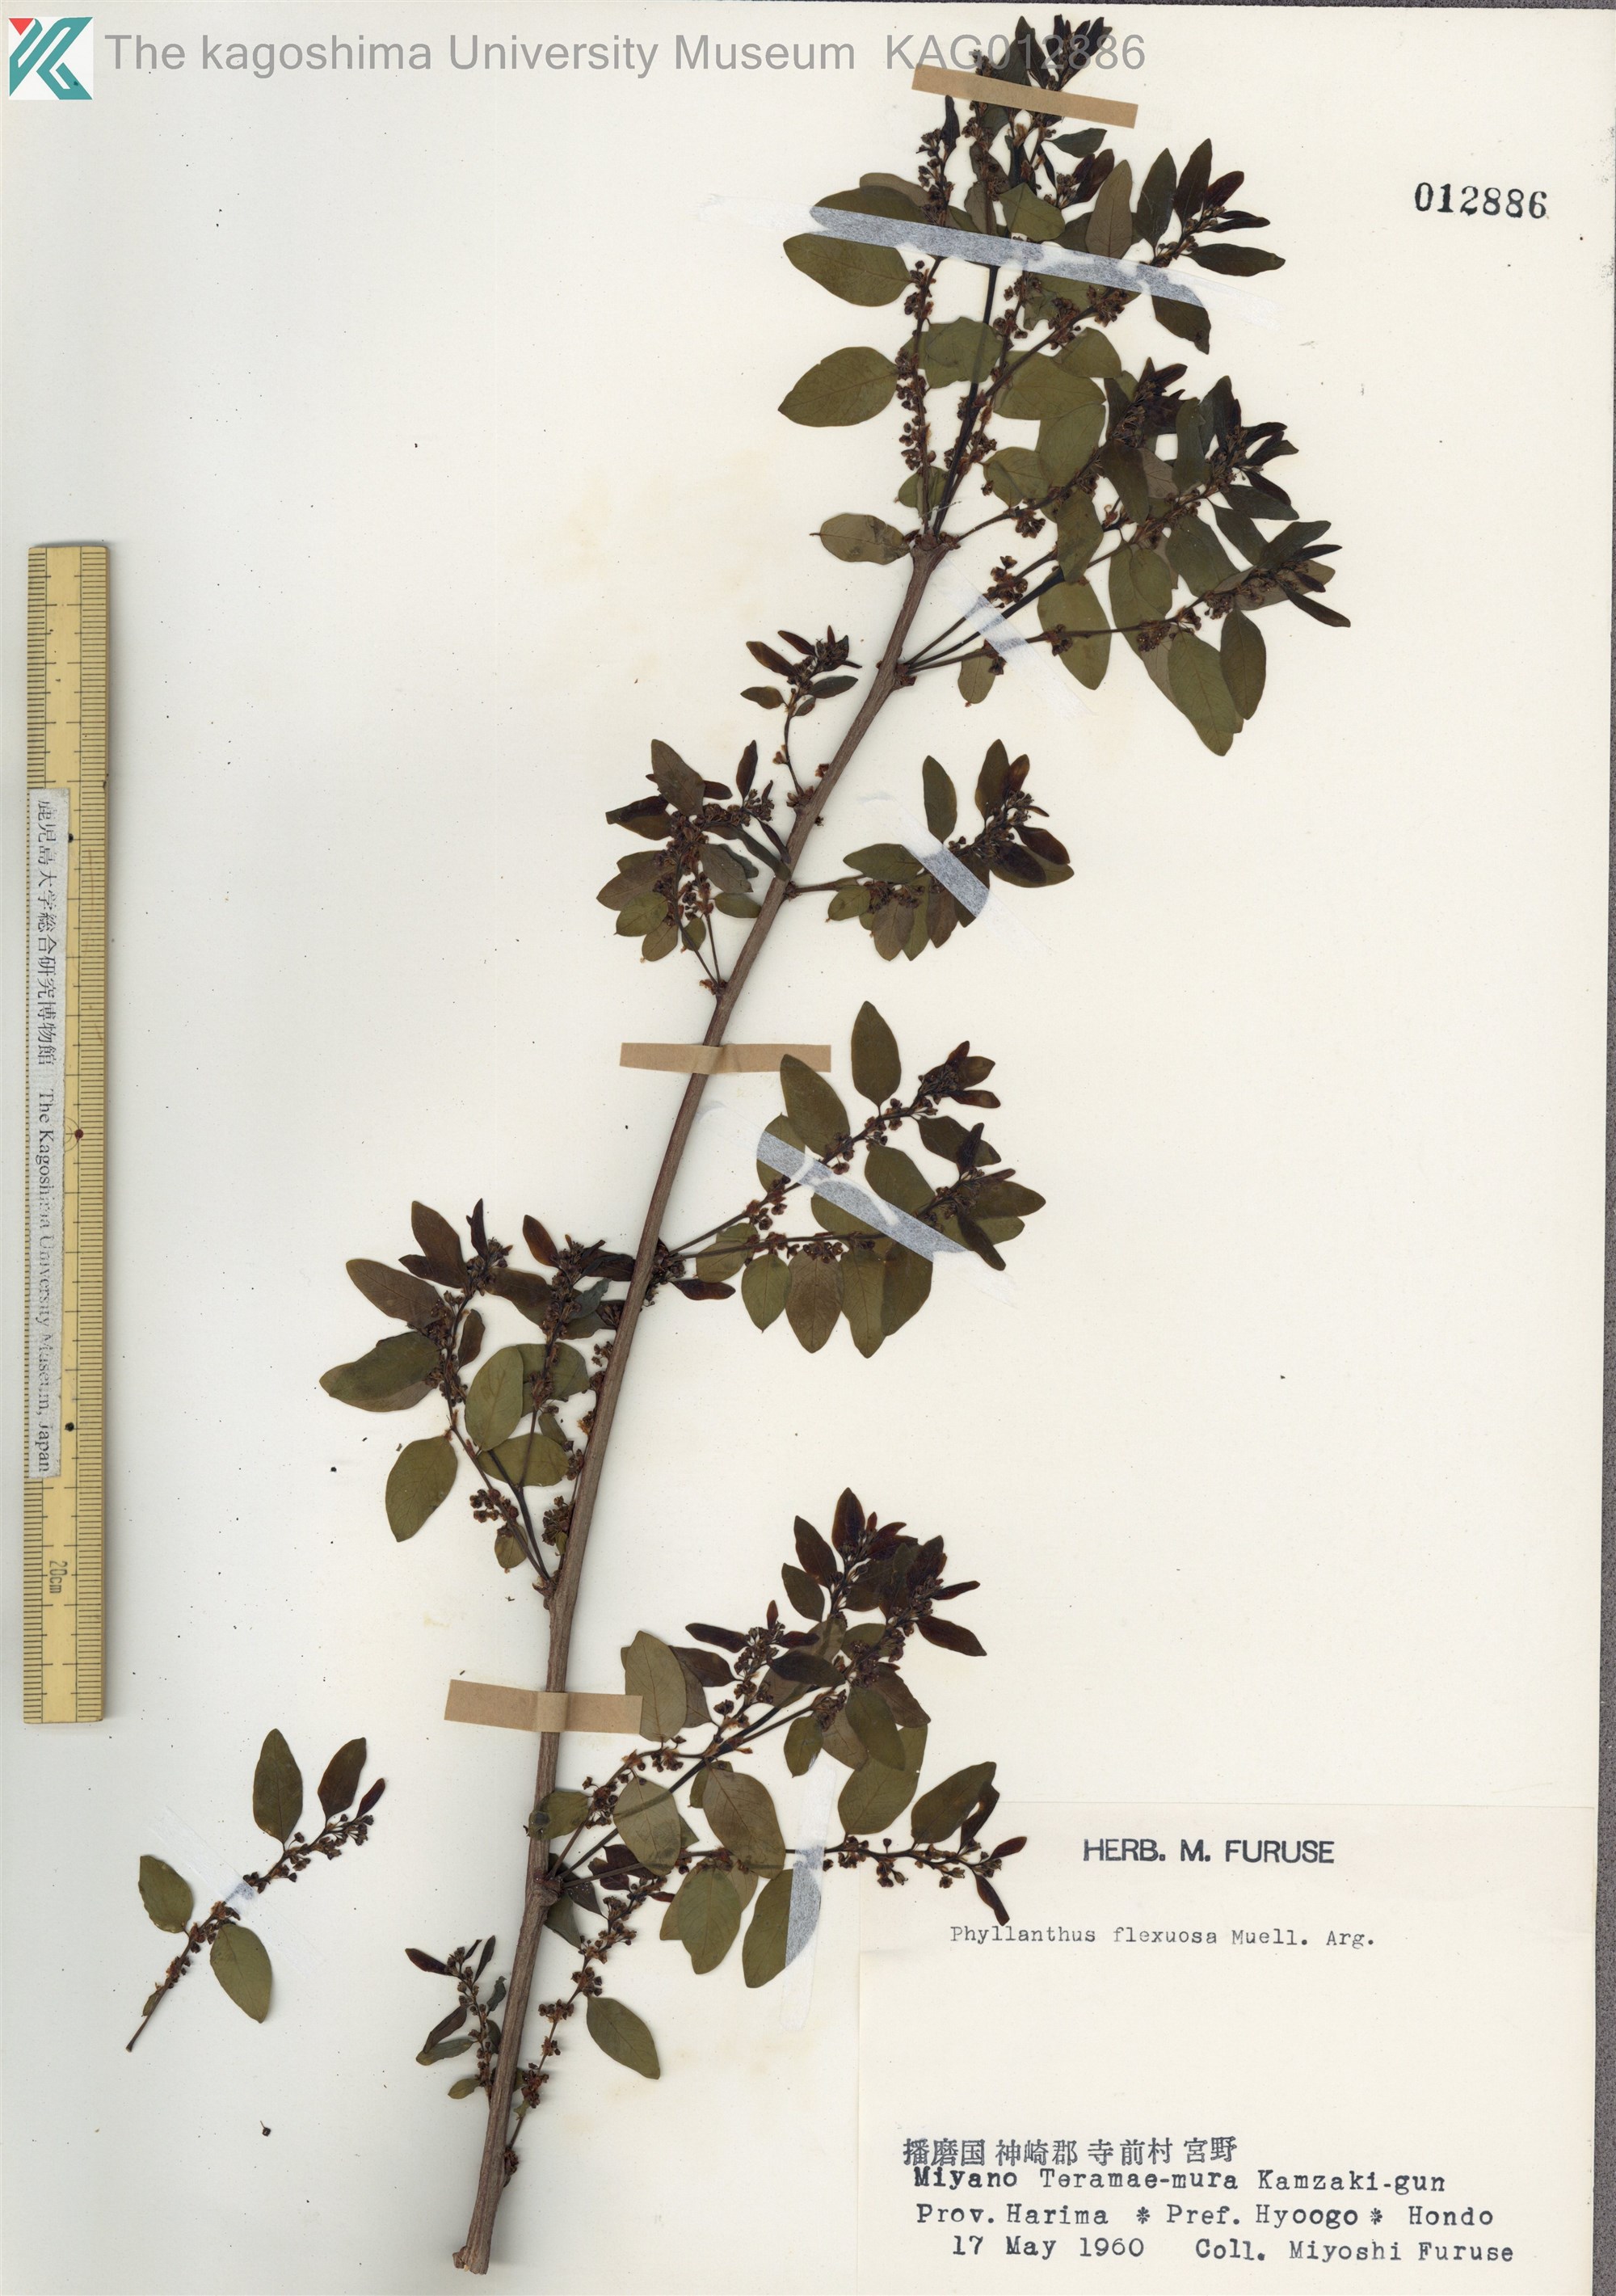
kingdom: Plantae
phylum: Tracheophyta
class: Magnoliopsida
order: Malpighiales
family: Phyllanthaceae
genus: Phyllanthus
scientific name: Phyllanthus flexuosus
